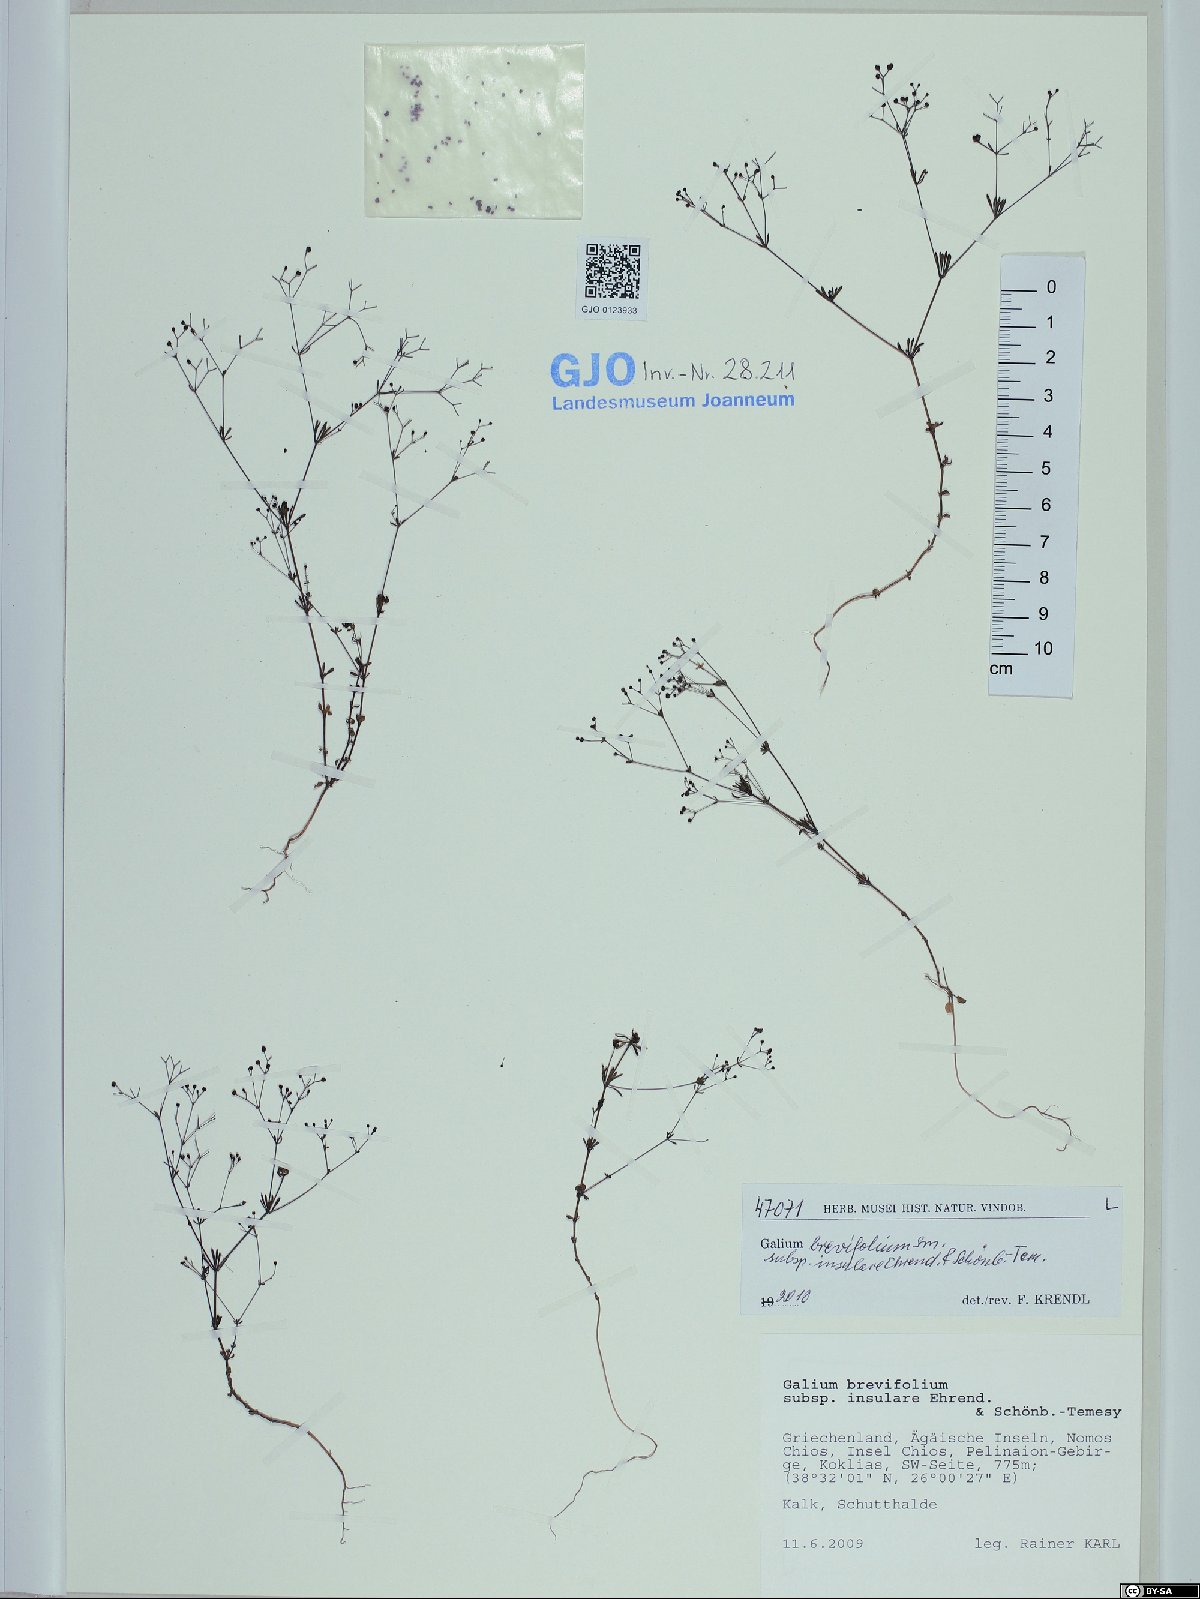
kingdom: Plantae
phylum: Tracheophyta
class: Magnoliopsida
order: Gentianales
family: Rubiaceae
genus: Galium
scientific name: Galium brevifolium
